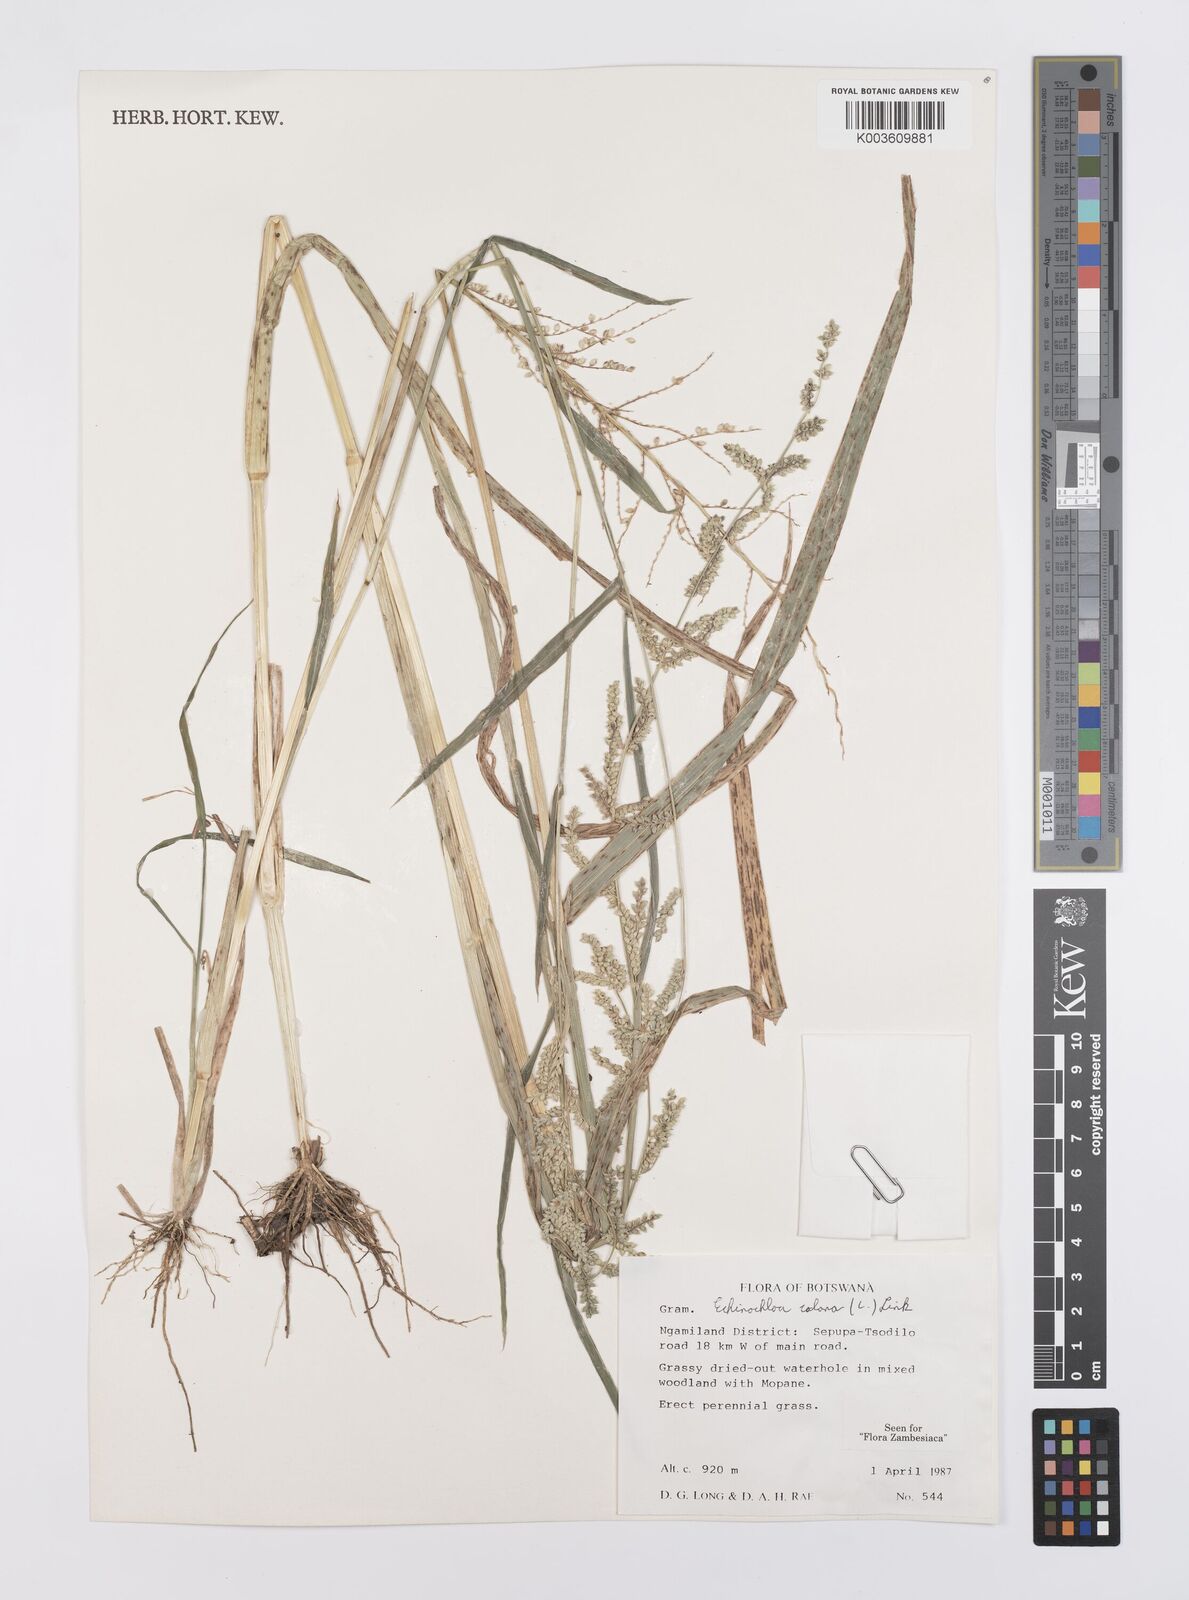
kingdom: Plantae
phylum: Tracheophyta
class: Liliopsida
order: Poales
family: Poaceae
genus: Echinochloa
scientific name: Echinochloa colonum
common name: Jungle rice
